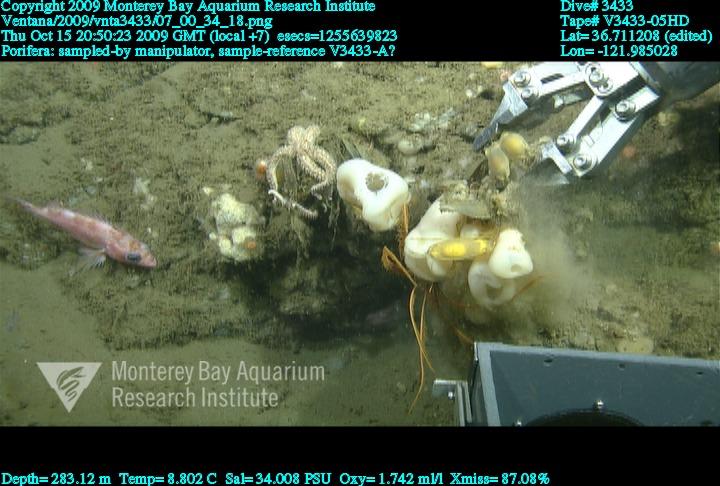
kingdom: Animalia
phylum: Porifera
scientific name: Porifera
